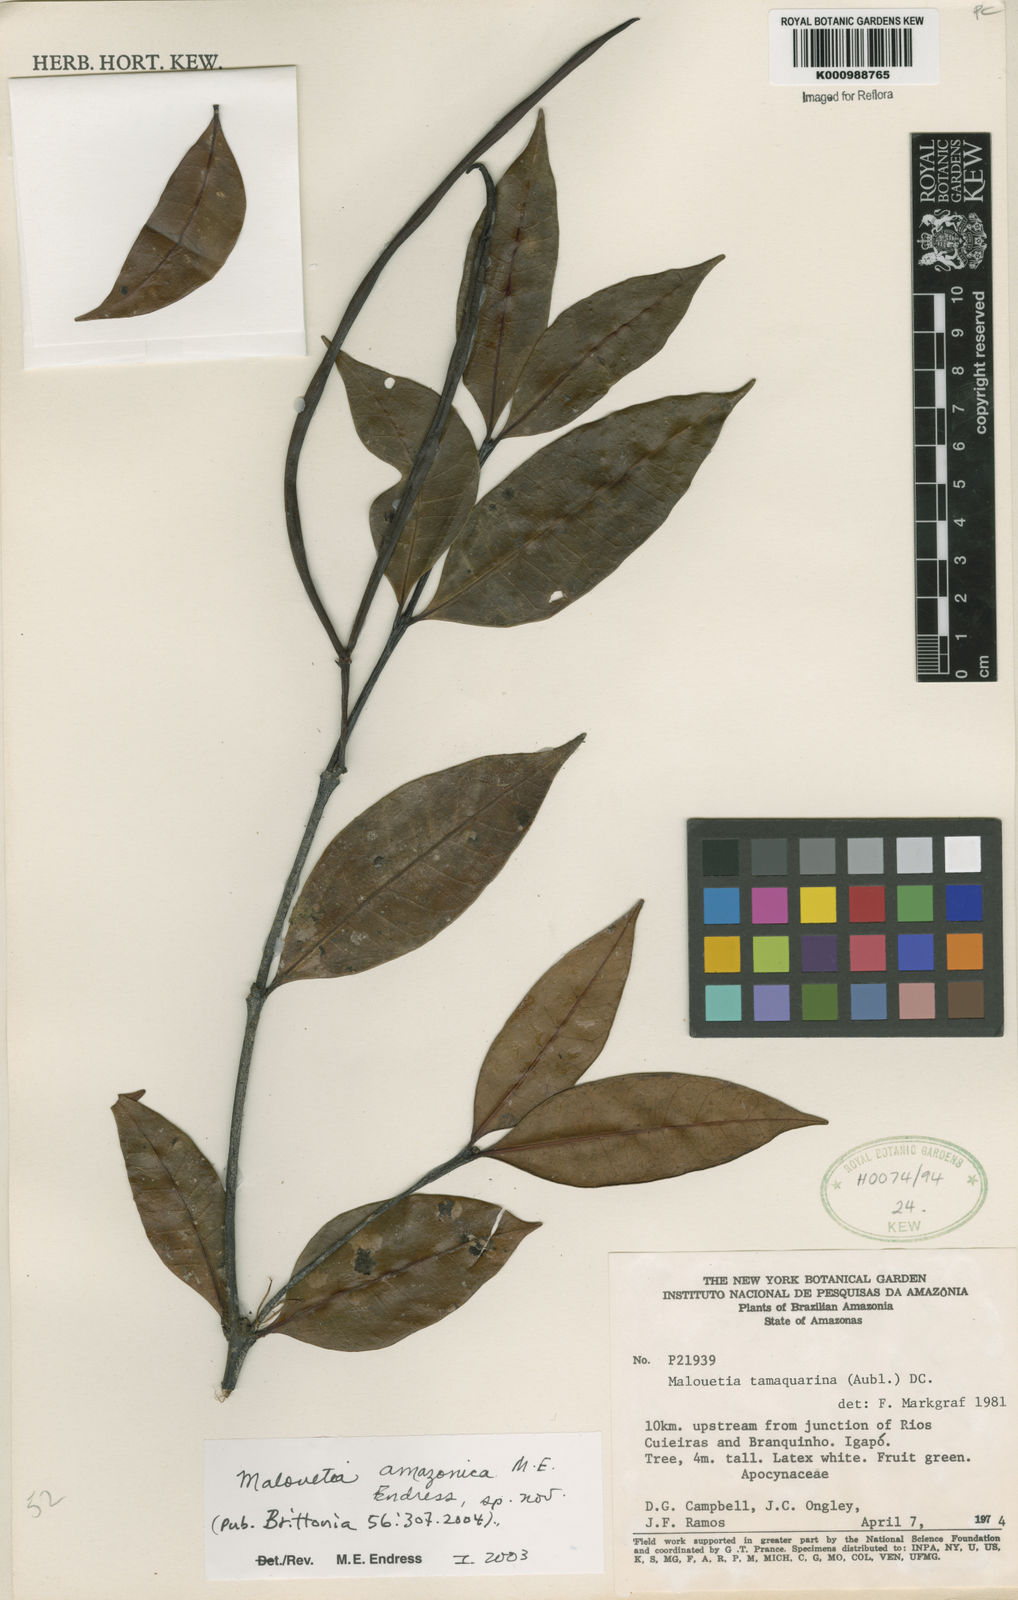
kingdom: Plantae
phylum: Tracheophyta
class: Magnoliopsida
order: Gentianales
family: Apocynaceae
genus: Malouetia
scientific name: Malouetia amazonica
